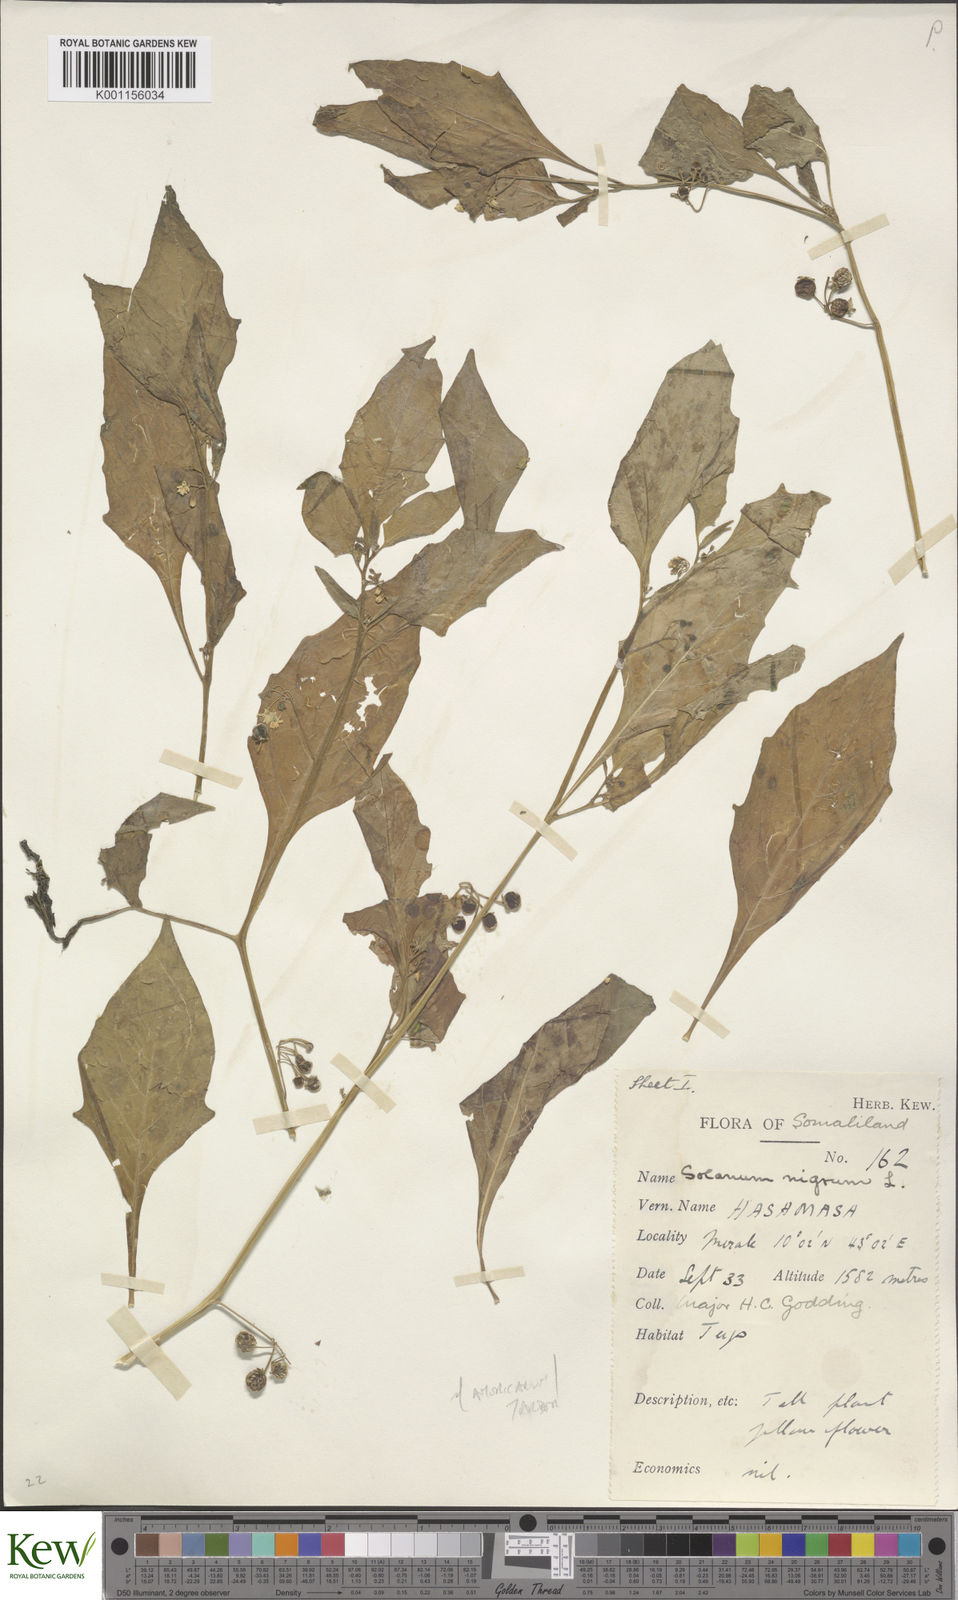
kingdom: Plantae
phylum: Tracheophyta
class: Magnoliopsida
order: Solanales
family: Solanaceae
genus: Solanum
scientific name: Solanum tarderemotum
